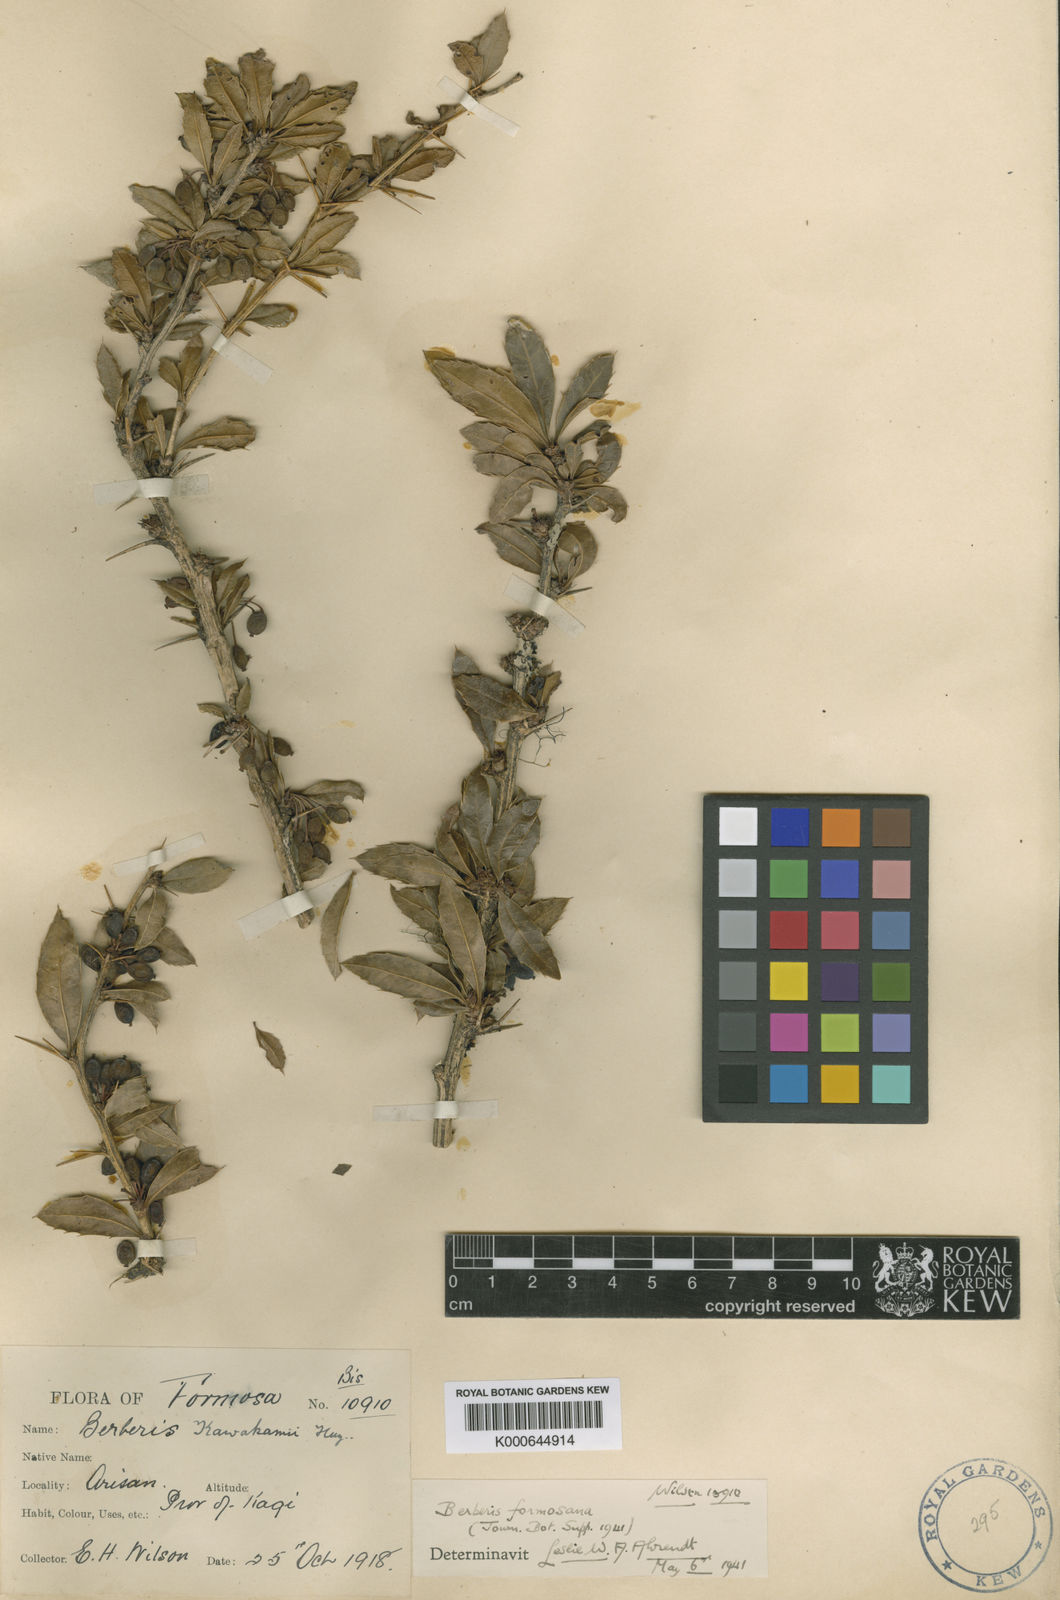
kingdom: Plantae
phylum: Tracheophyta
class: Magnoliopsida
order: Ranunculales
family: Berberidaceae
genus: Berberis
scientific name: Berberis kawakamii
